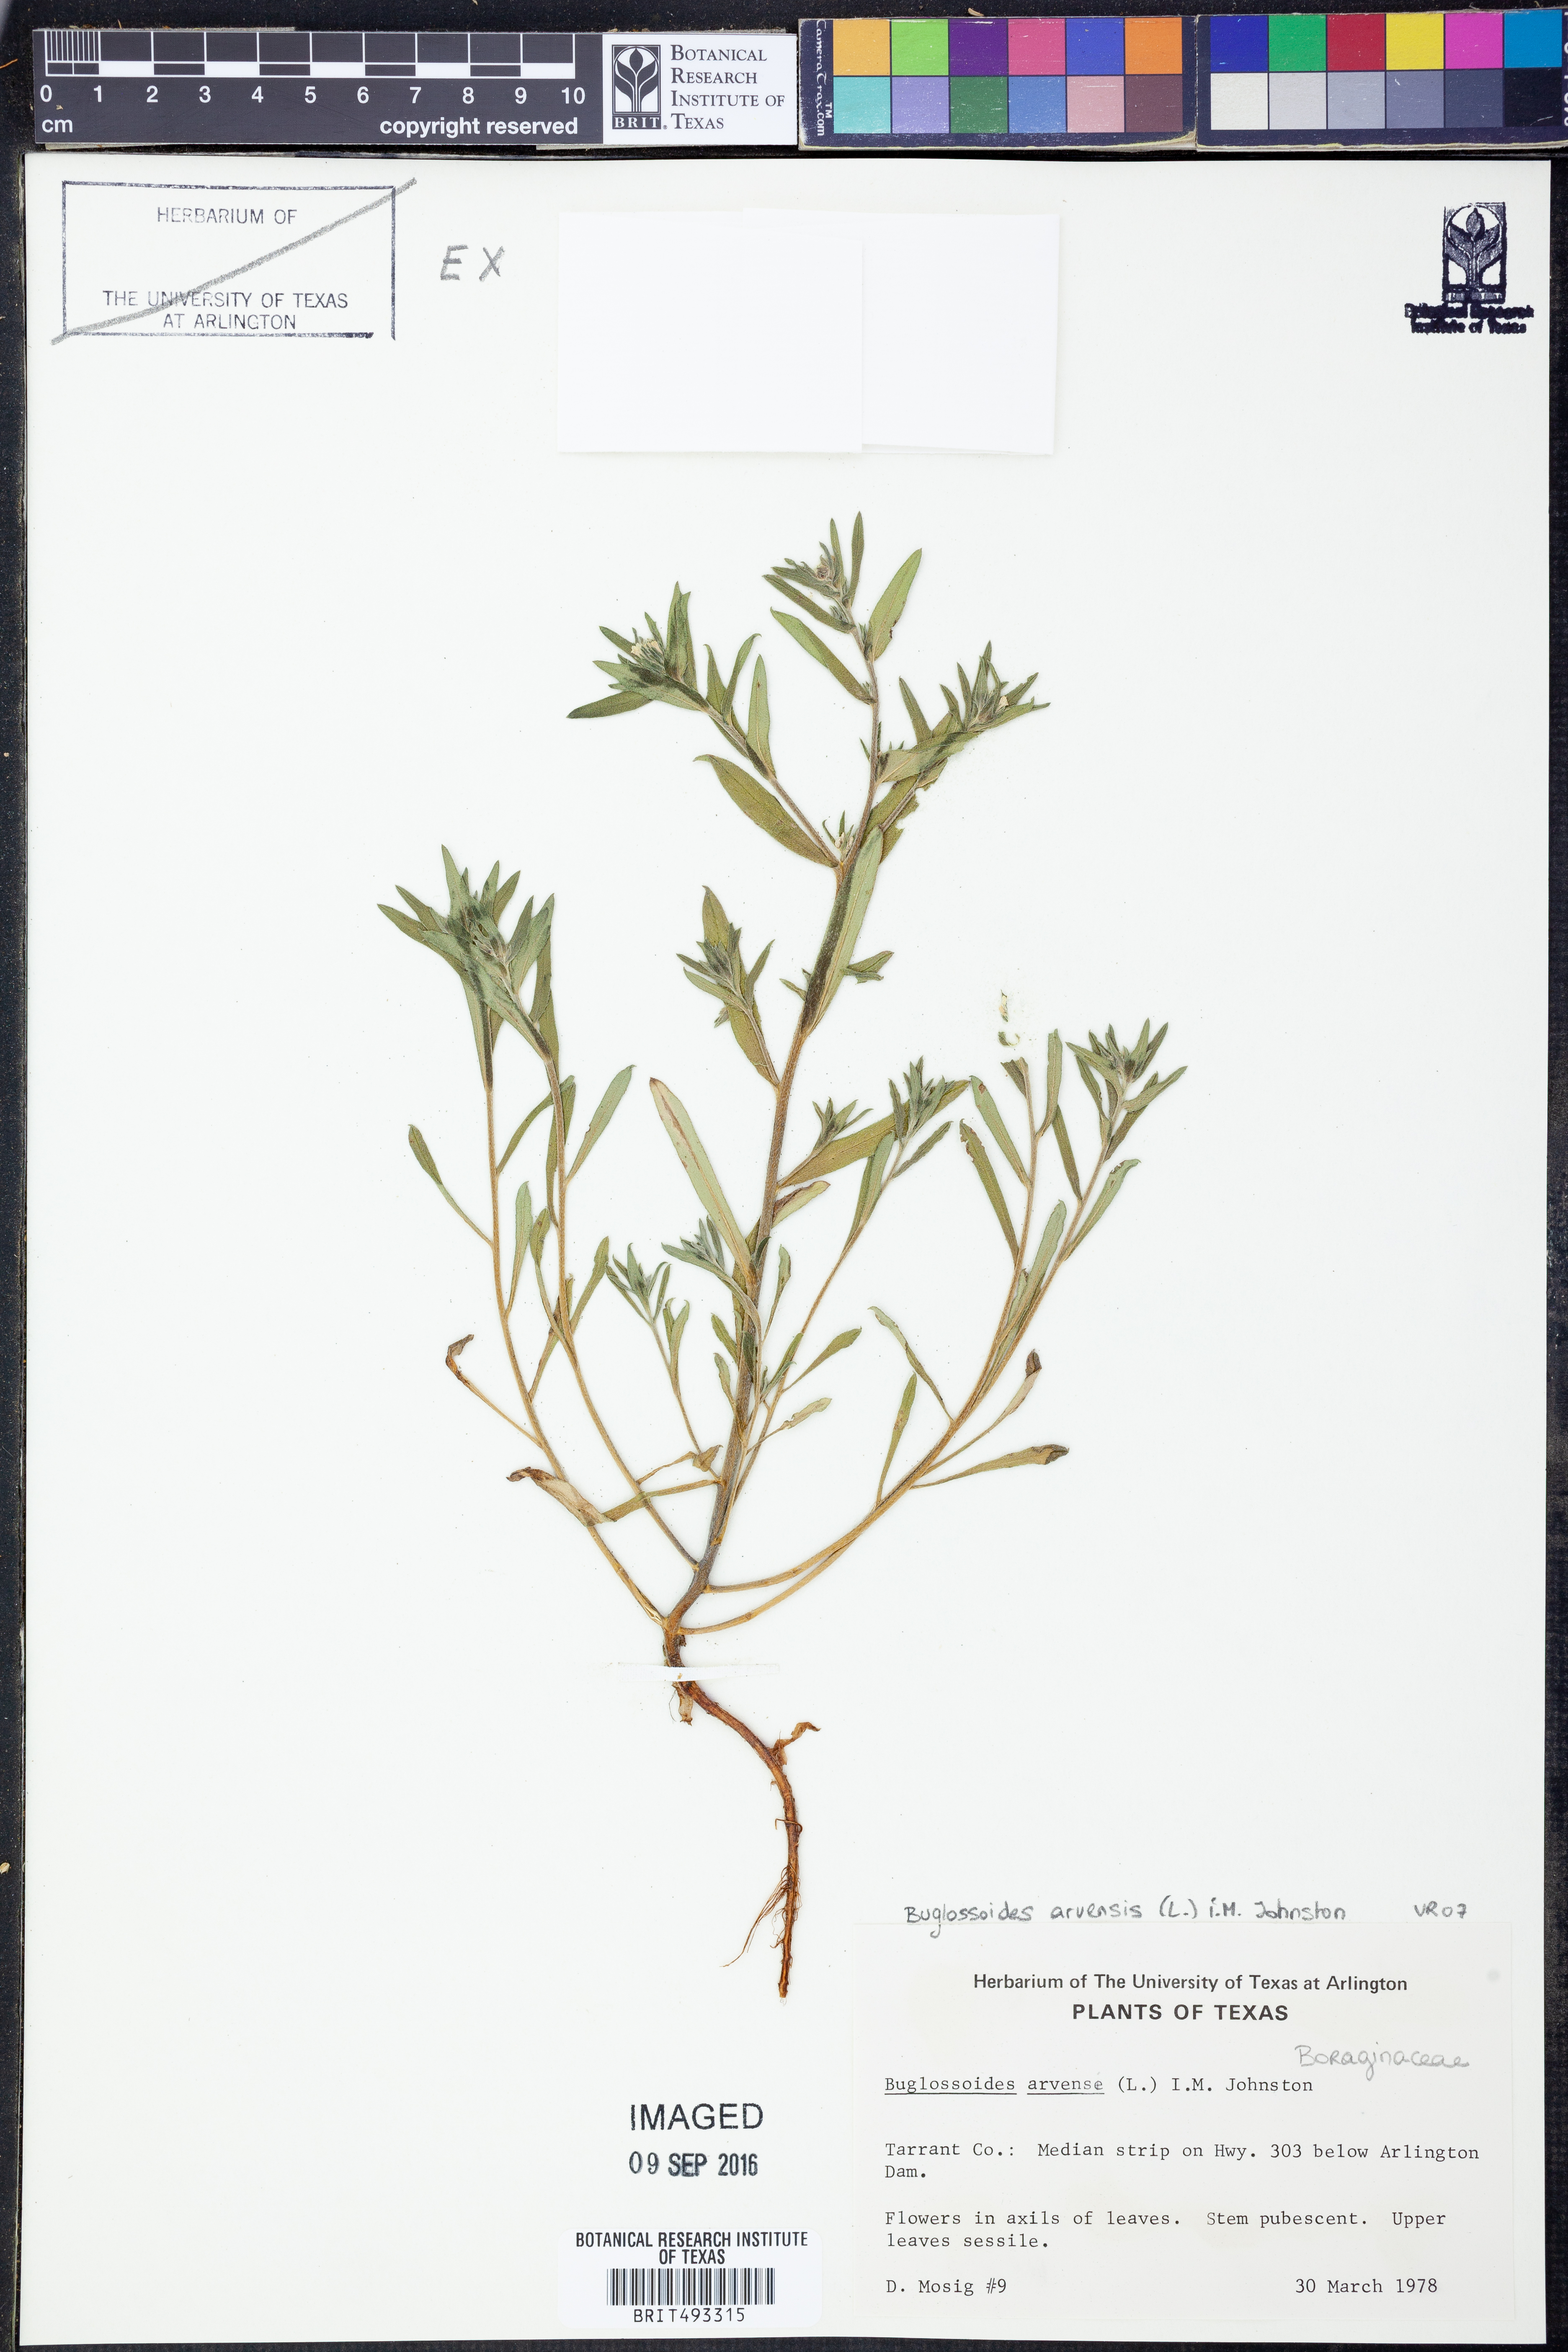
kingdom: Plantae
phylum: Tracheophyta
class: Magnoliopsida
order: Boraginales
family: Boraginaceae
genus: Buglossoides
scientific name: Buglossoides arvensis
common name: Corn gromwell
